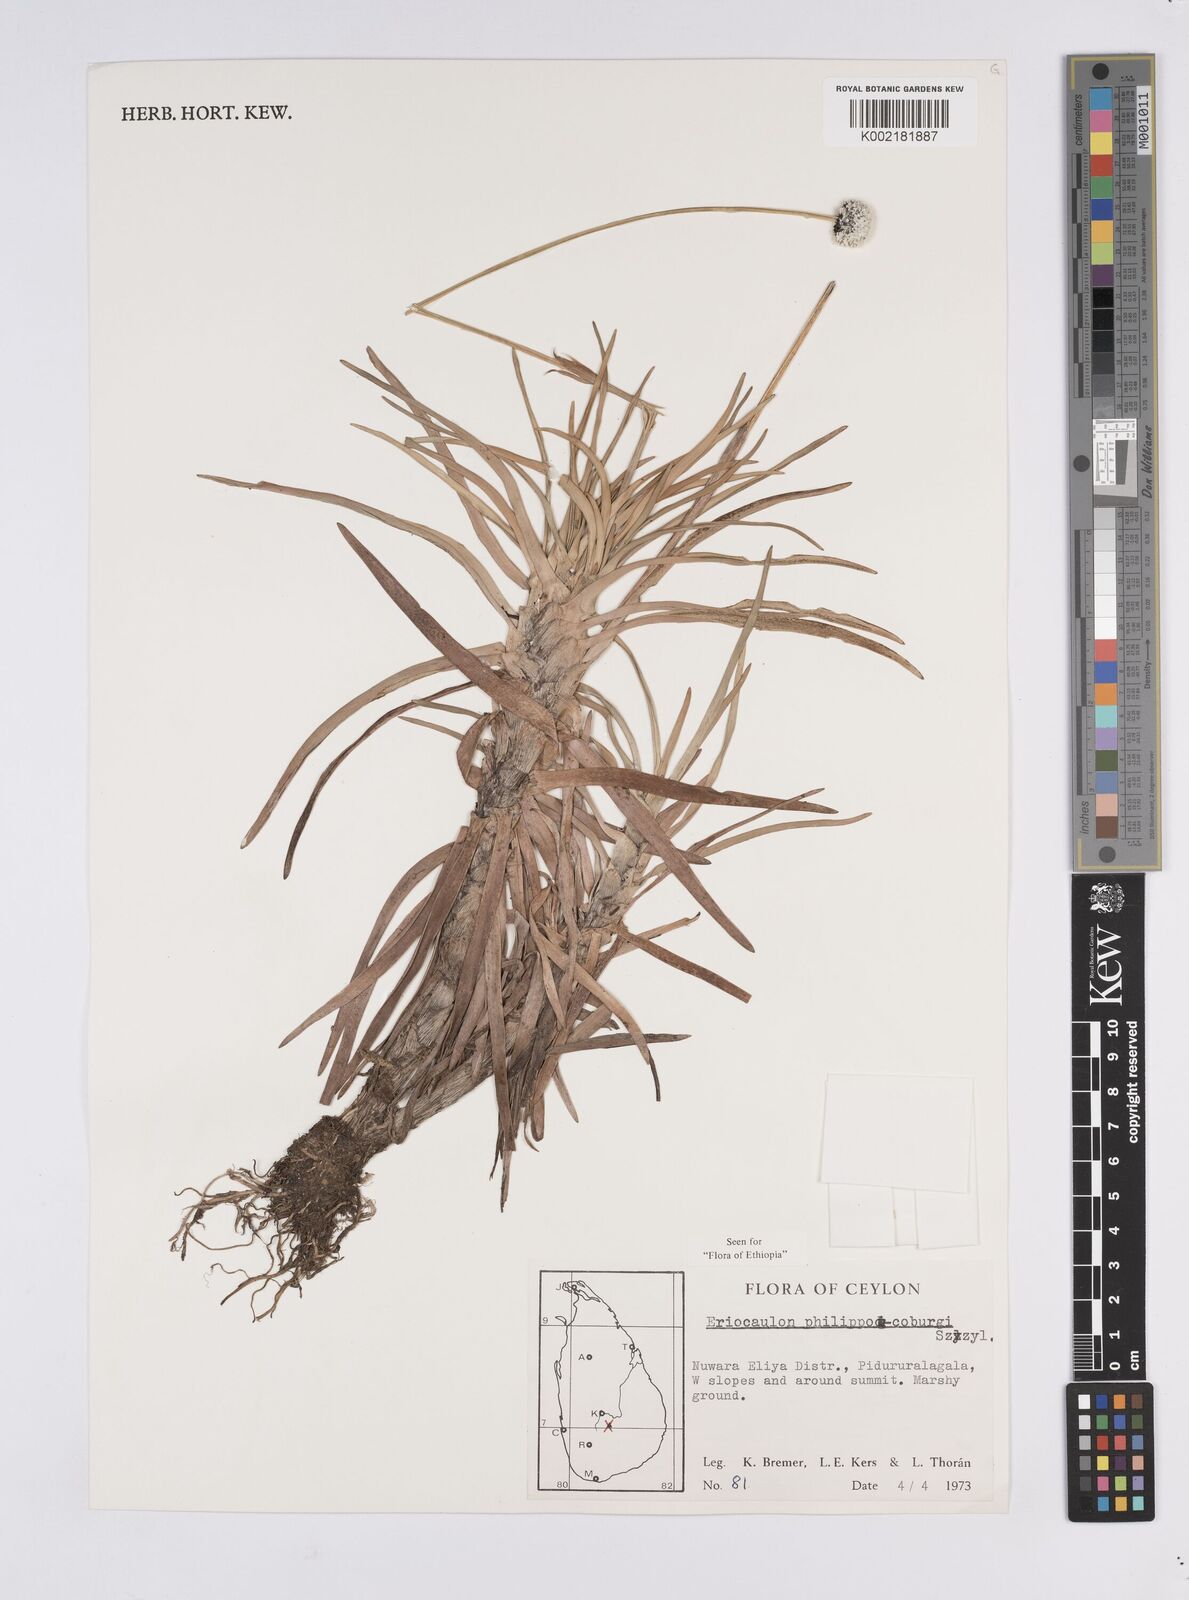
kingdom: Plantae
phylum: Tracheophyta
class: Liliopsida
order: Poales
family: Eriocaulaceae
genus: Eriocaulon
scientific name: Eriocaulon philippo-coburgii
